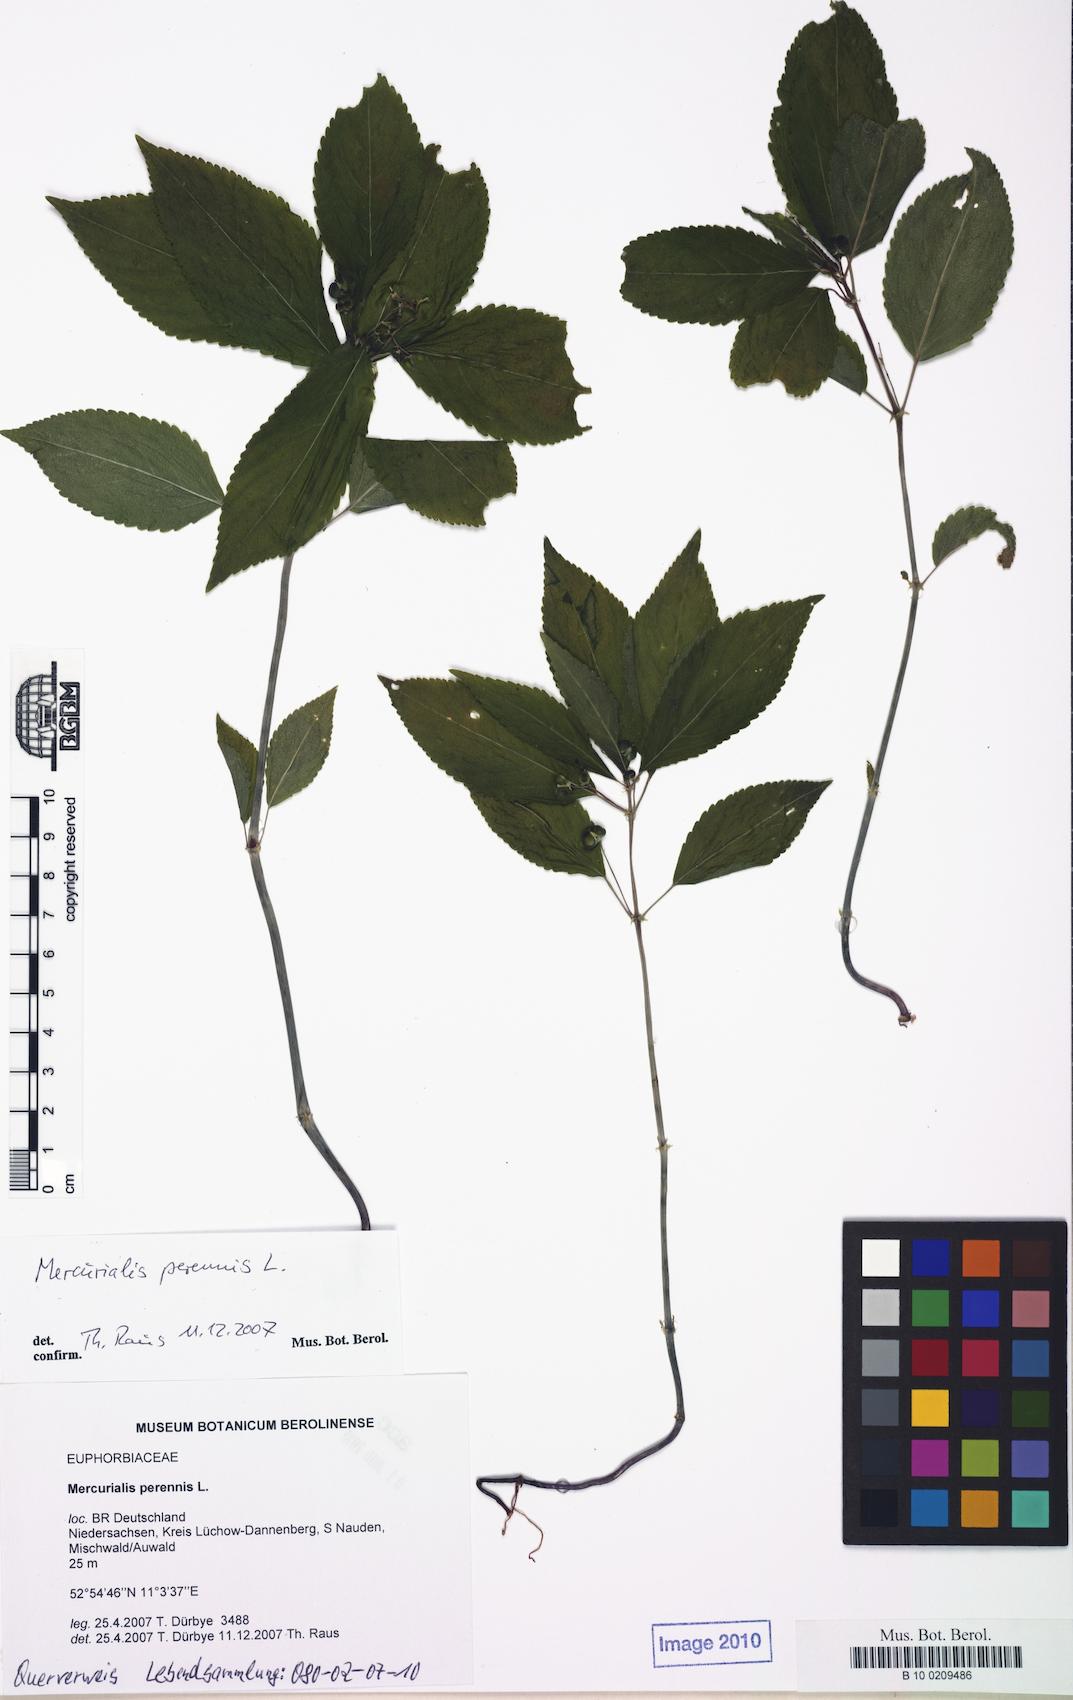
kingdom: Plantae
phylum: Tracheophyta
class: Magnoliopsida
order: Malpighiales
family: Euphorbiaceae
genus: Mercurialis
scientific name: Mercurialis perennis
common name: Dog mercury
